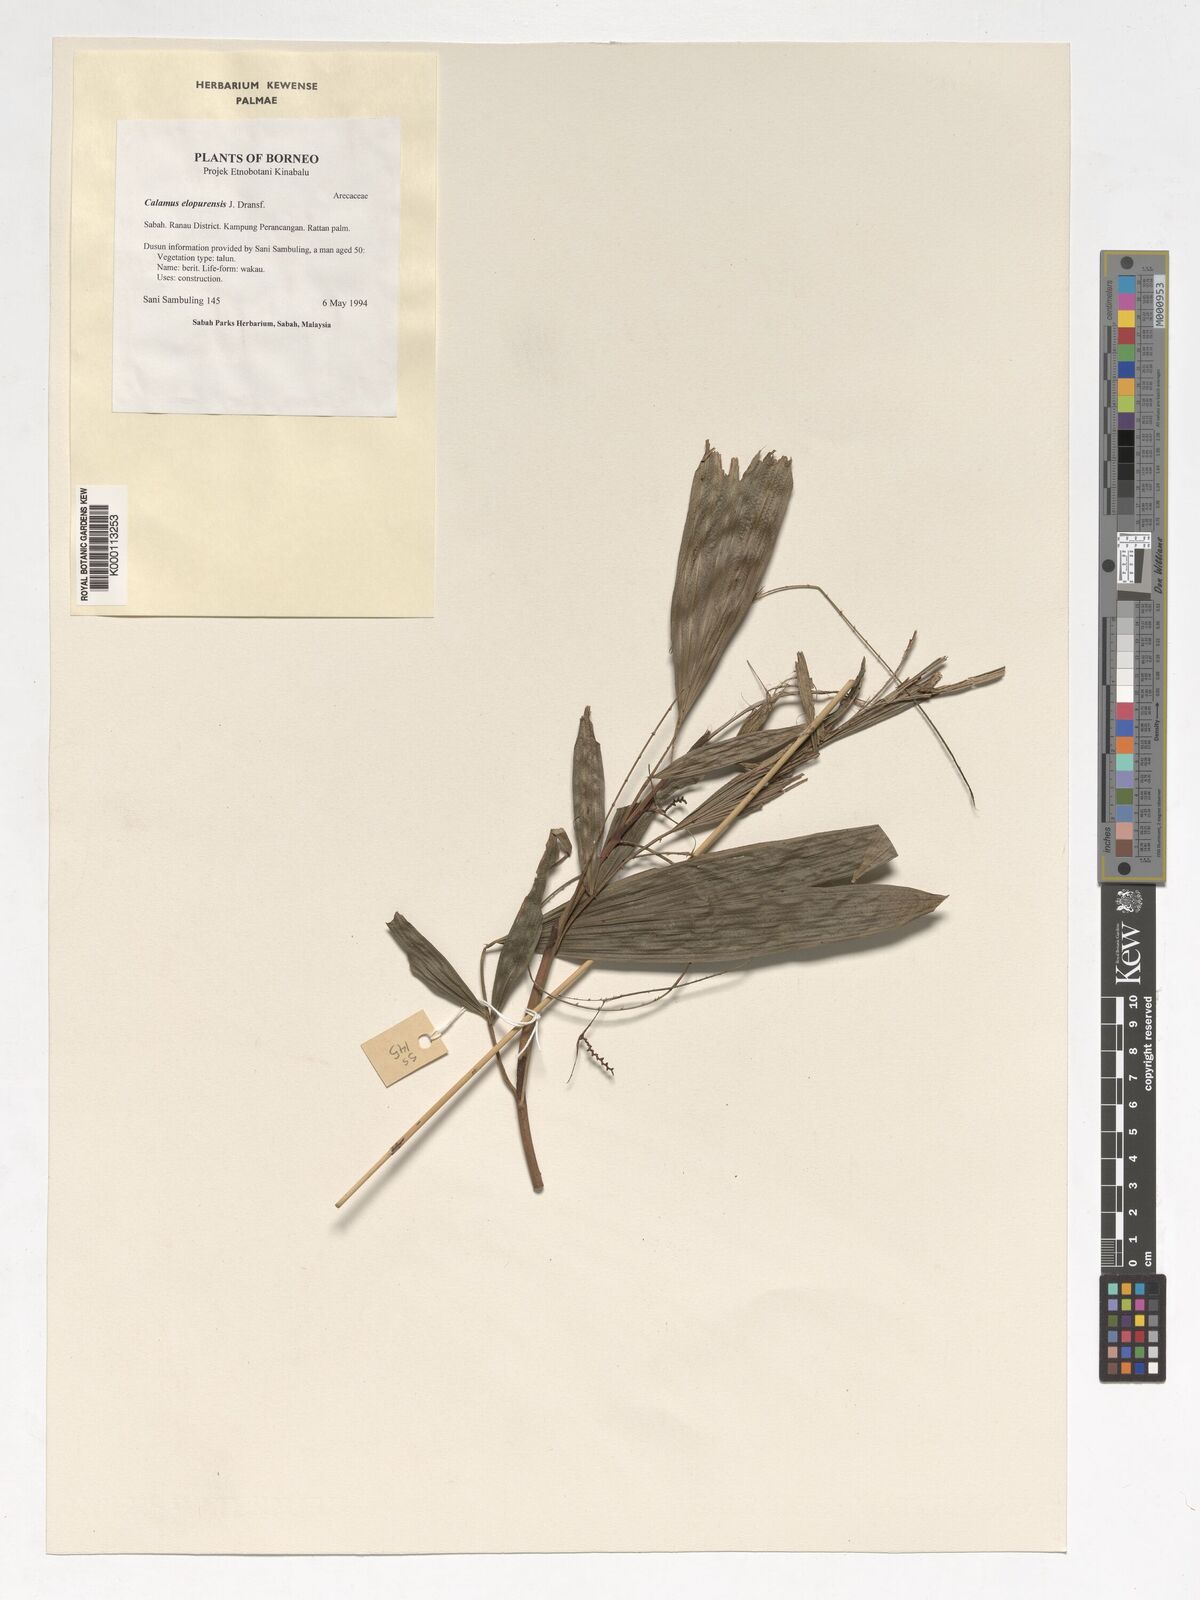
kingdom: Plantae
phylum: Tracheophyta
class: Liliopsida
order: Arecales
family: Arecaceae
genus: Calamus
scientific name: Calamus javensis
